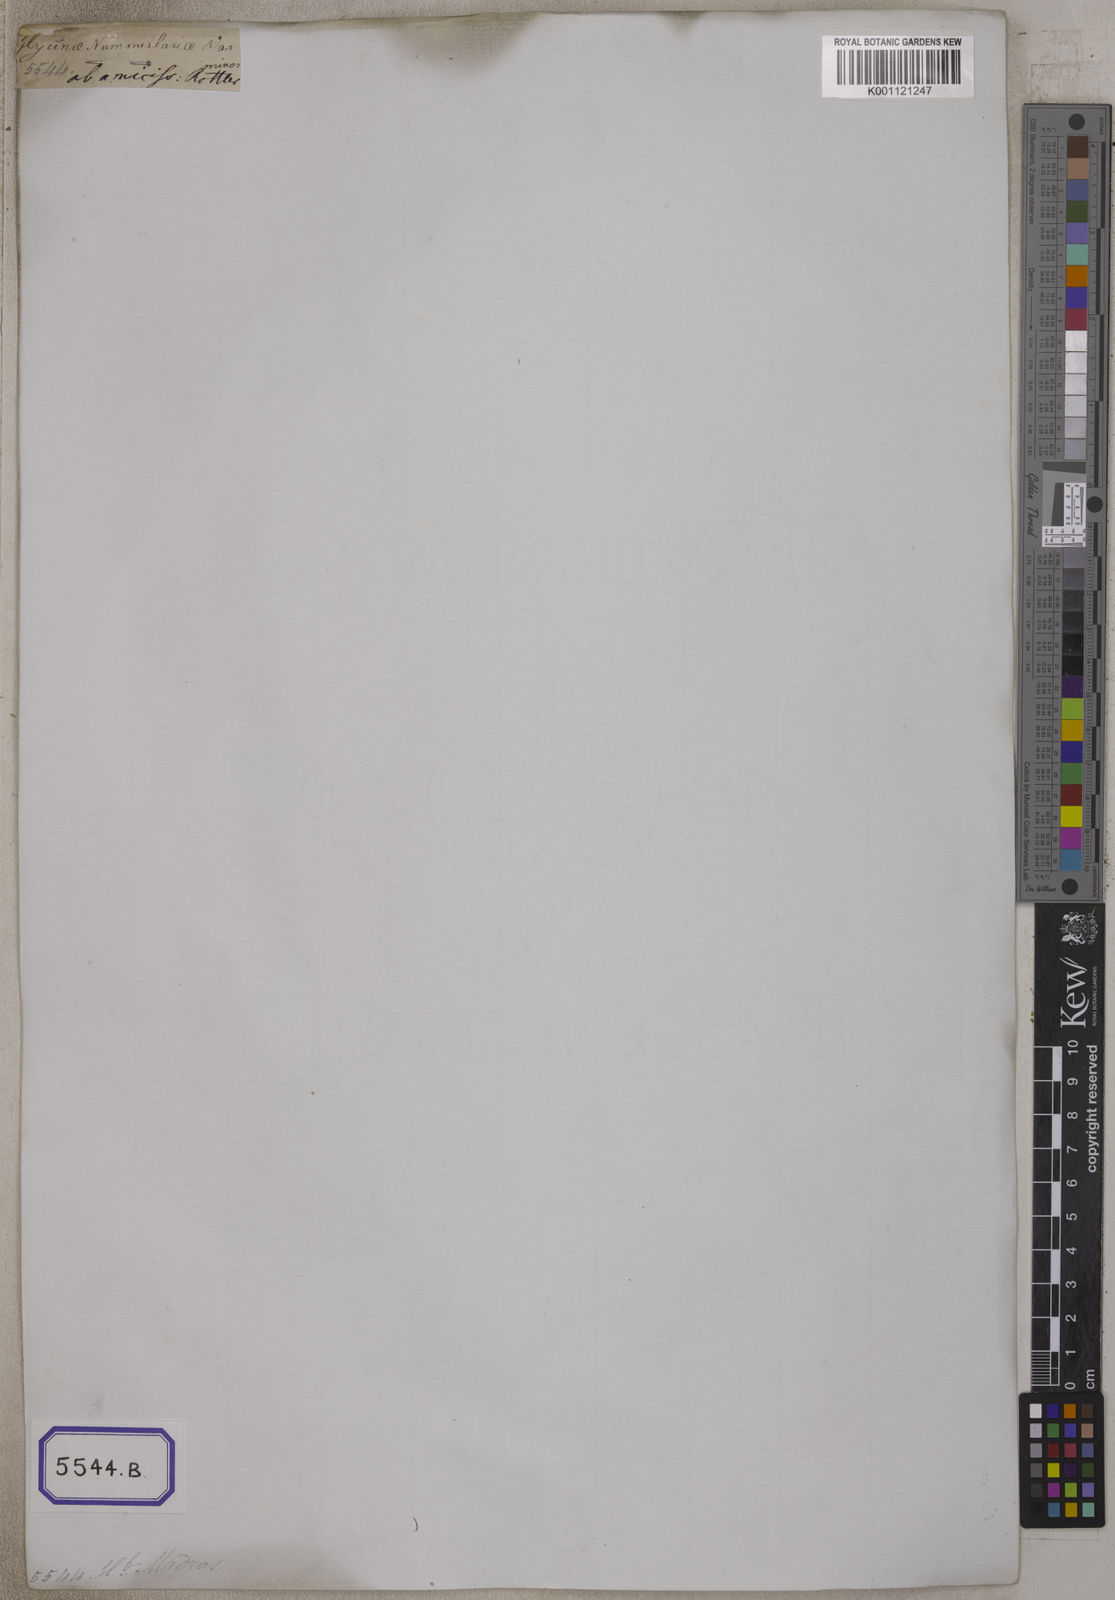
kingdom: Plantae
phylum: Tracheophyta
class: Magnoliopsida
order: Fabales
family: Fabaceae
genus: Rhynchosia
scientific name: Rhynchosia aurea
